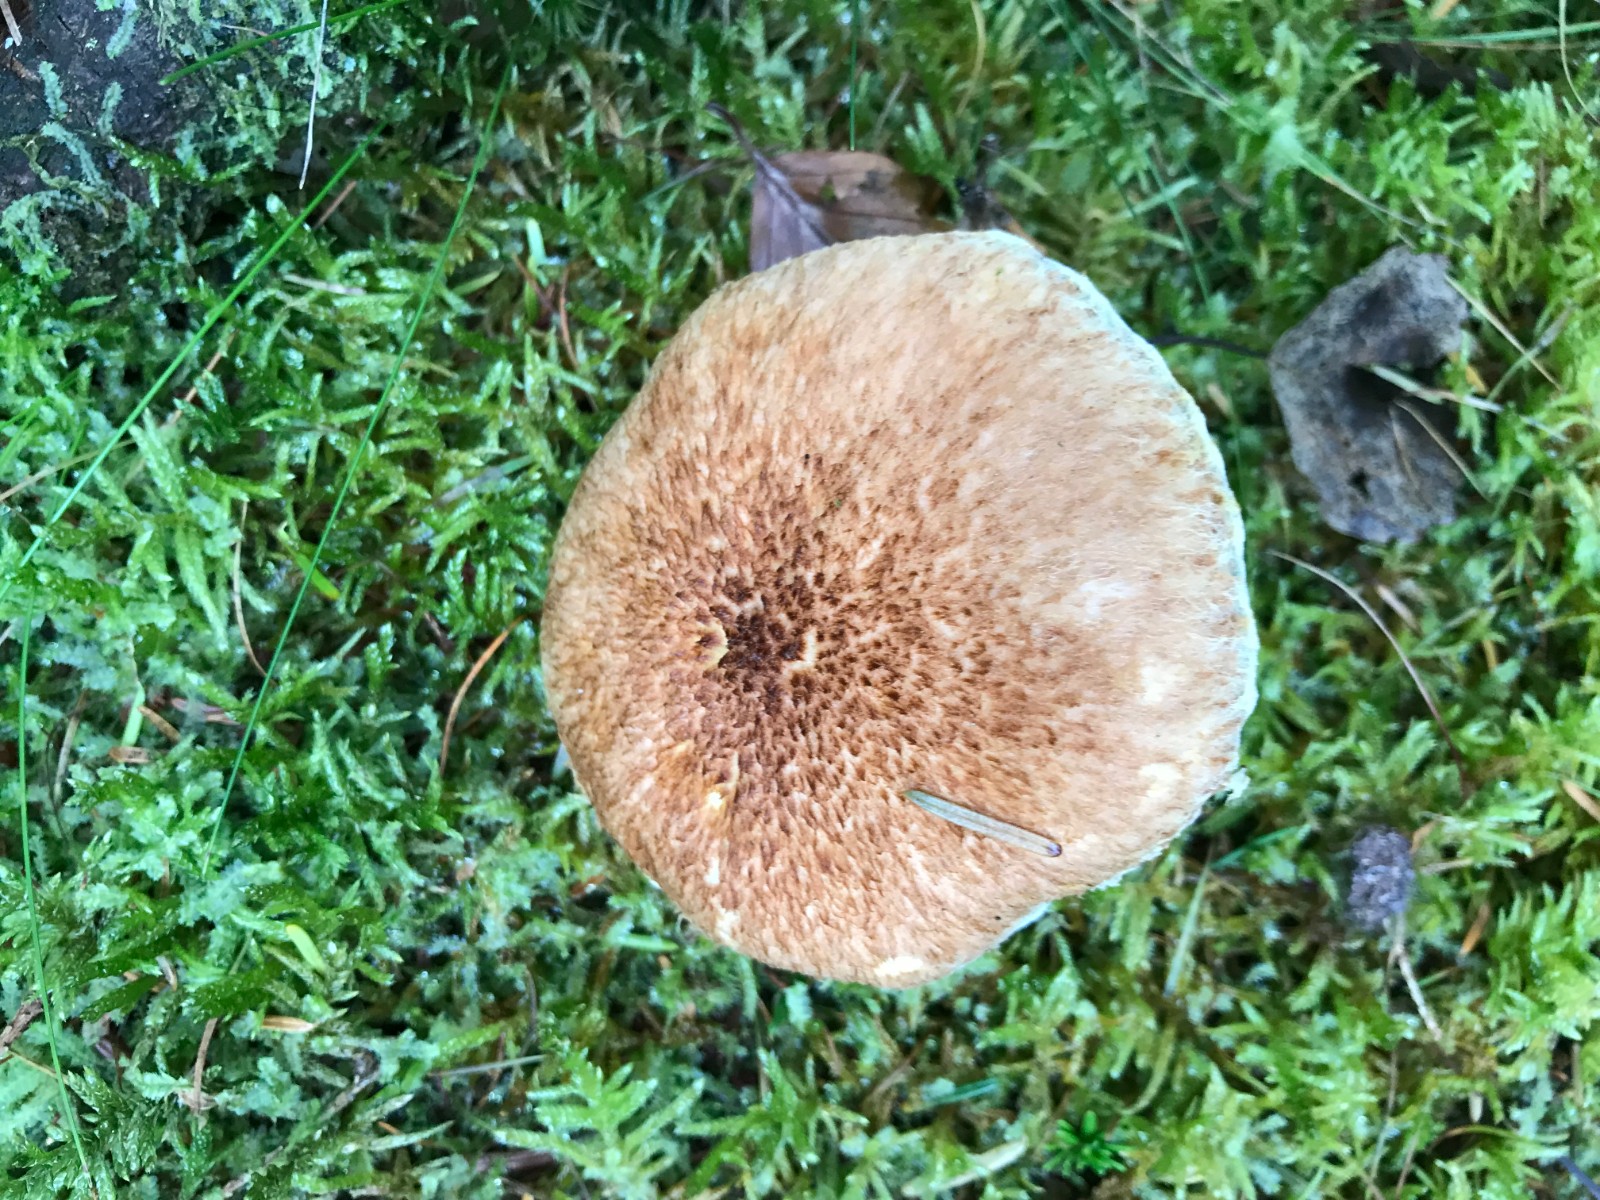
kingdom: Fungi
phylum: Basidiomycota
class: Agaricomycetes
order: Boletales
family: Suillaceae
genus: Suillus
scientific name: Suillus cavipes
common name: hulstokket slimrørhat
